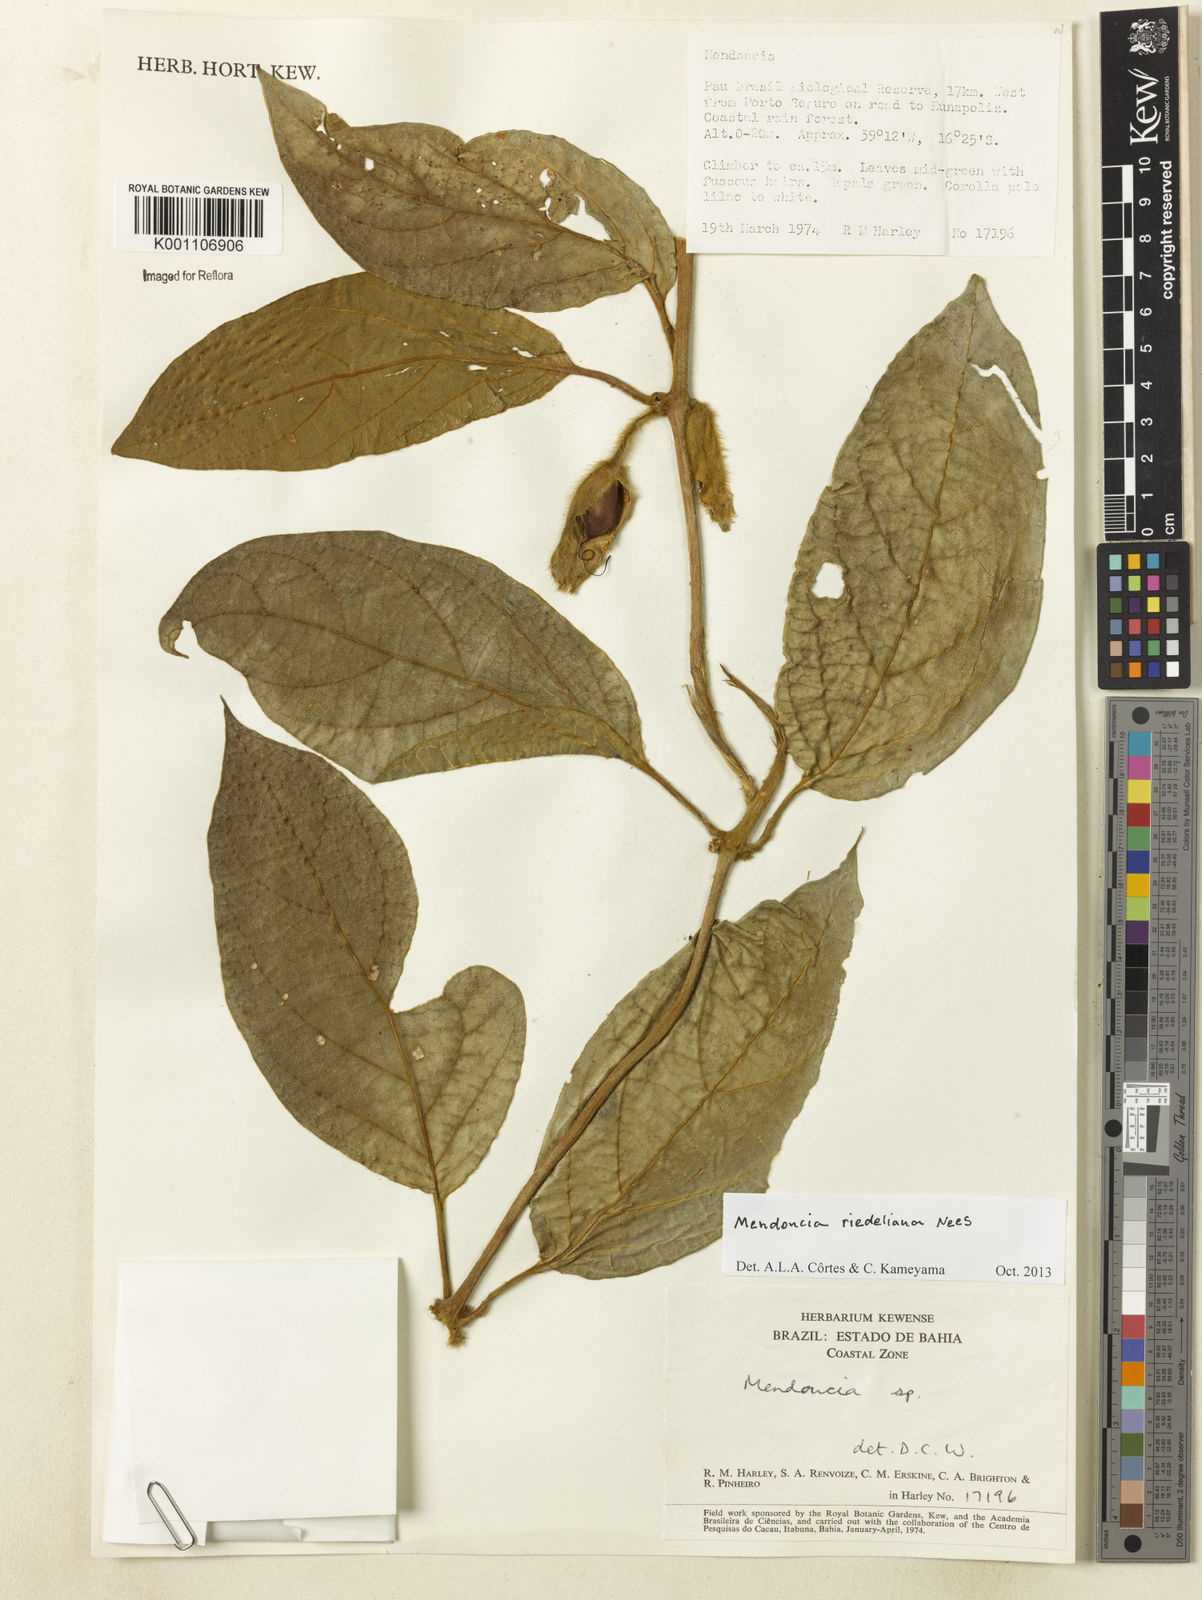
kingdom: Plantae
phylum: Tracheophyta
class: Magnoliopsida
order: Lamiales
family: Acanthaceae
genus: Mendoncia
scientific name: Mendoncia
